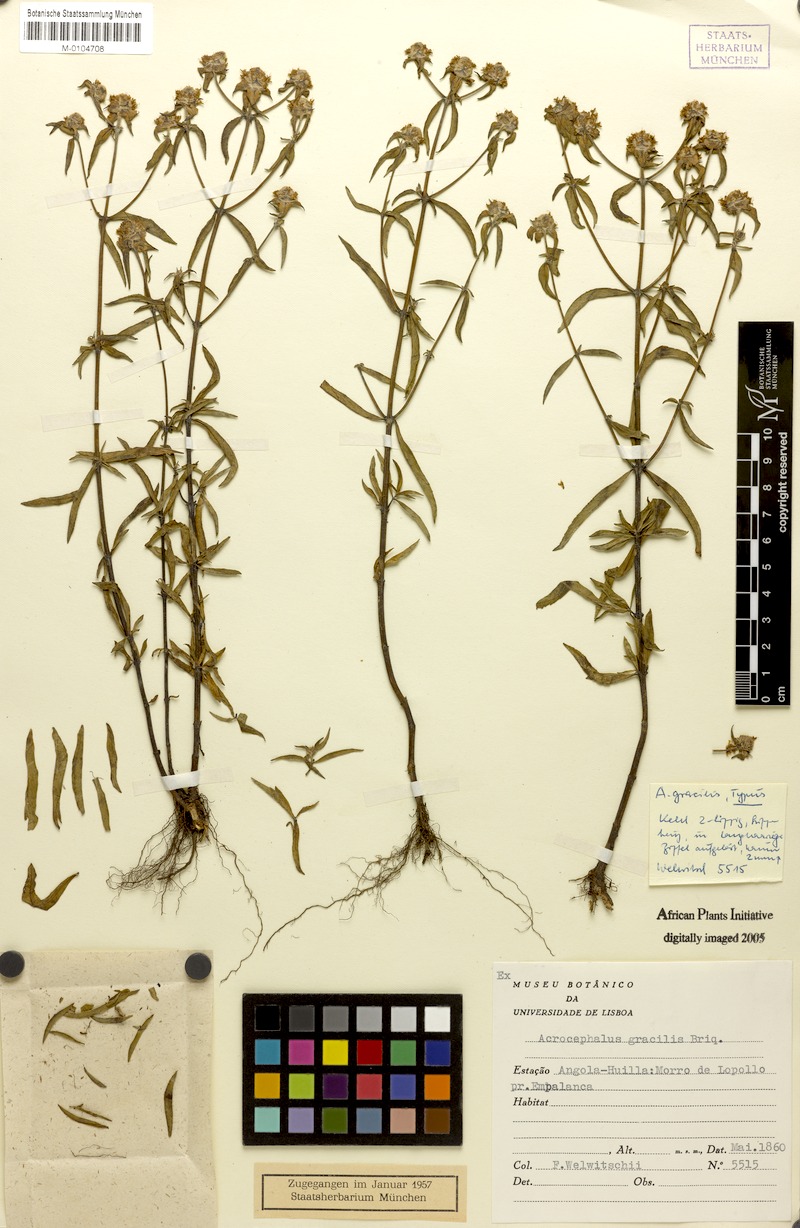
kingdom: Plantae
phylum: Tracheophyta
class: Magnoliopsida
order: Lamiales
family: Lamiaceae
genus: Haumaniastrum
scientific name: Haumaniastrum caeruleum
